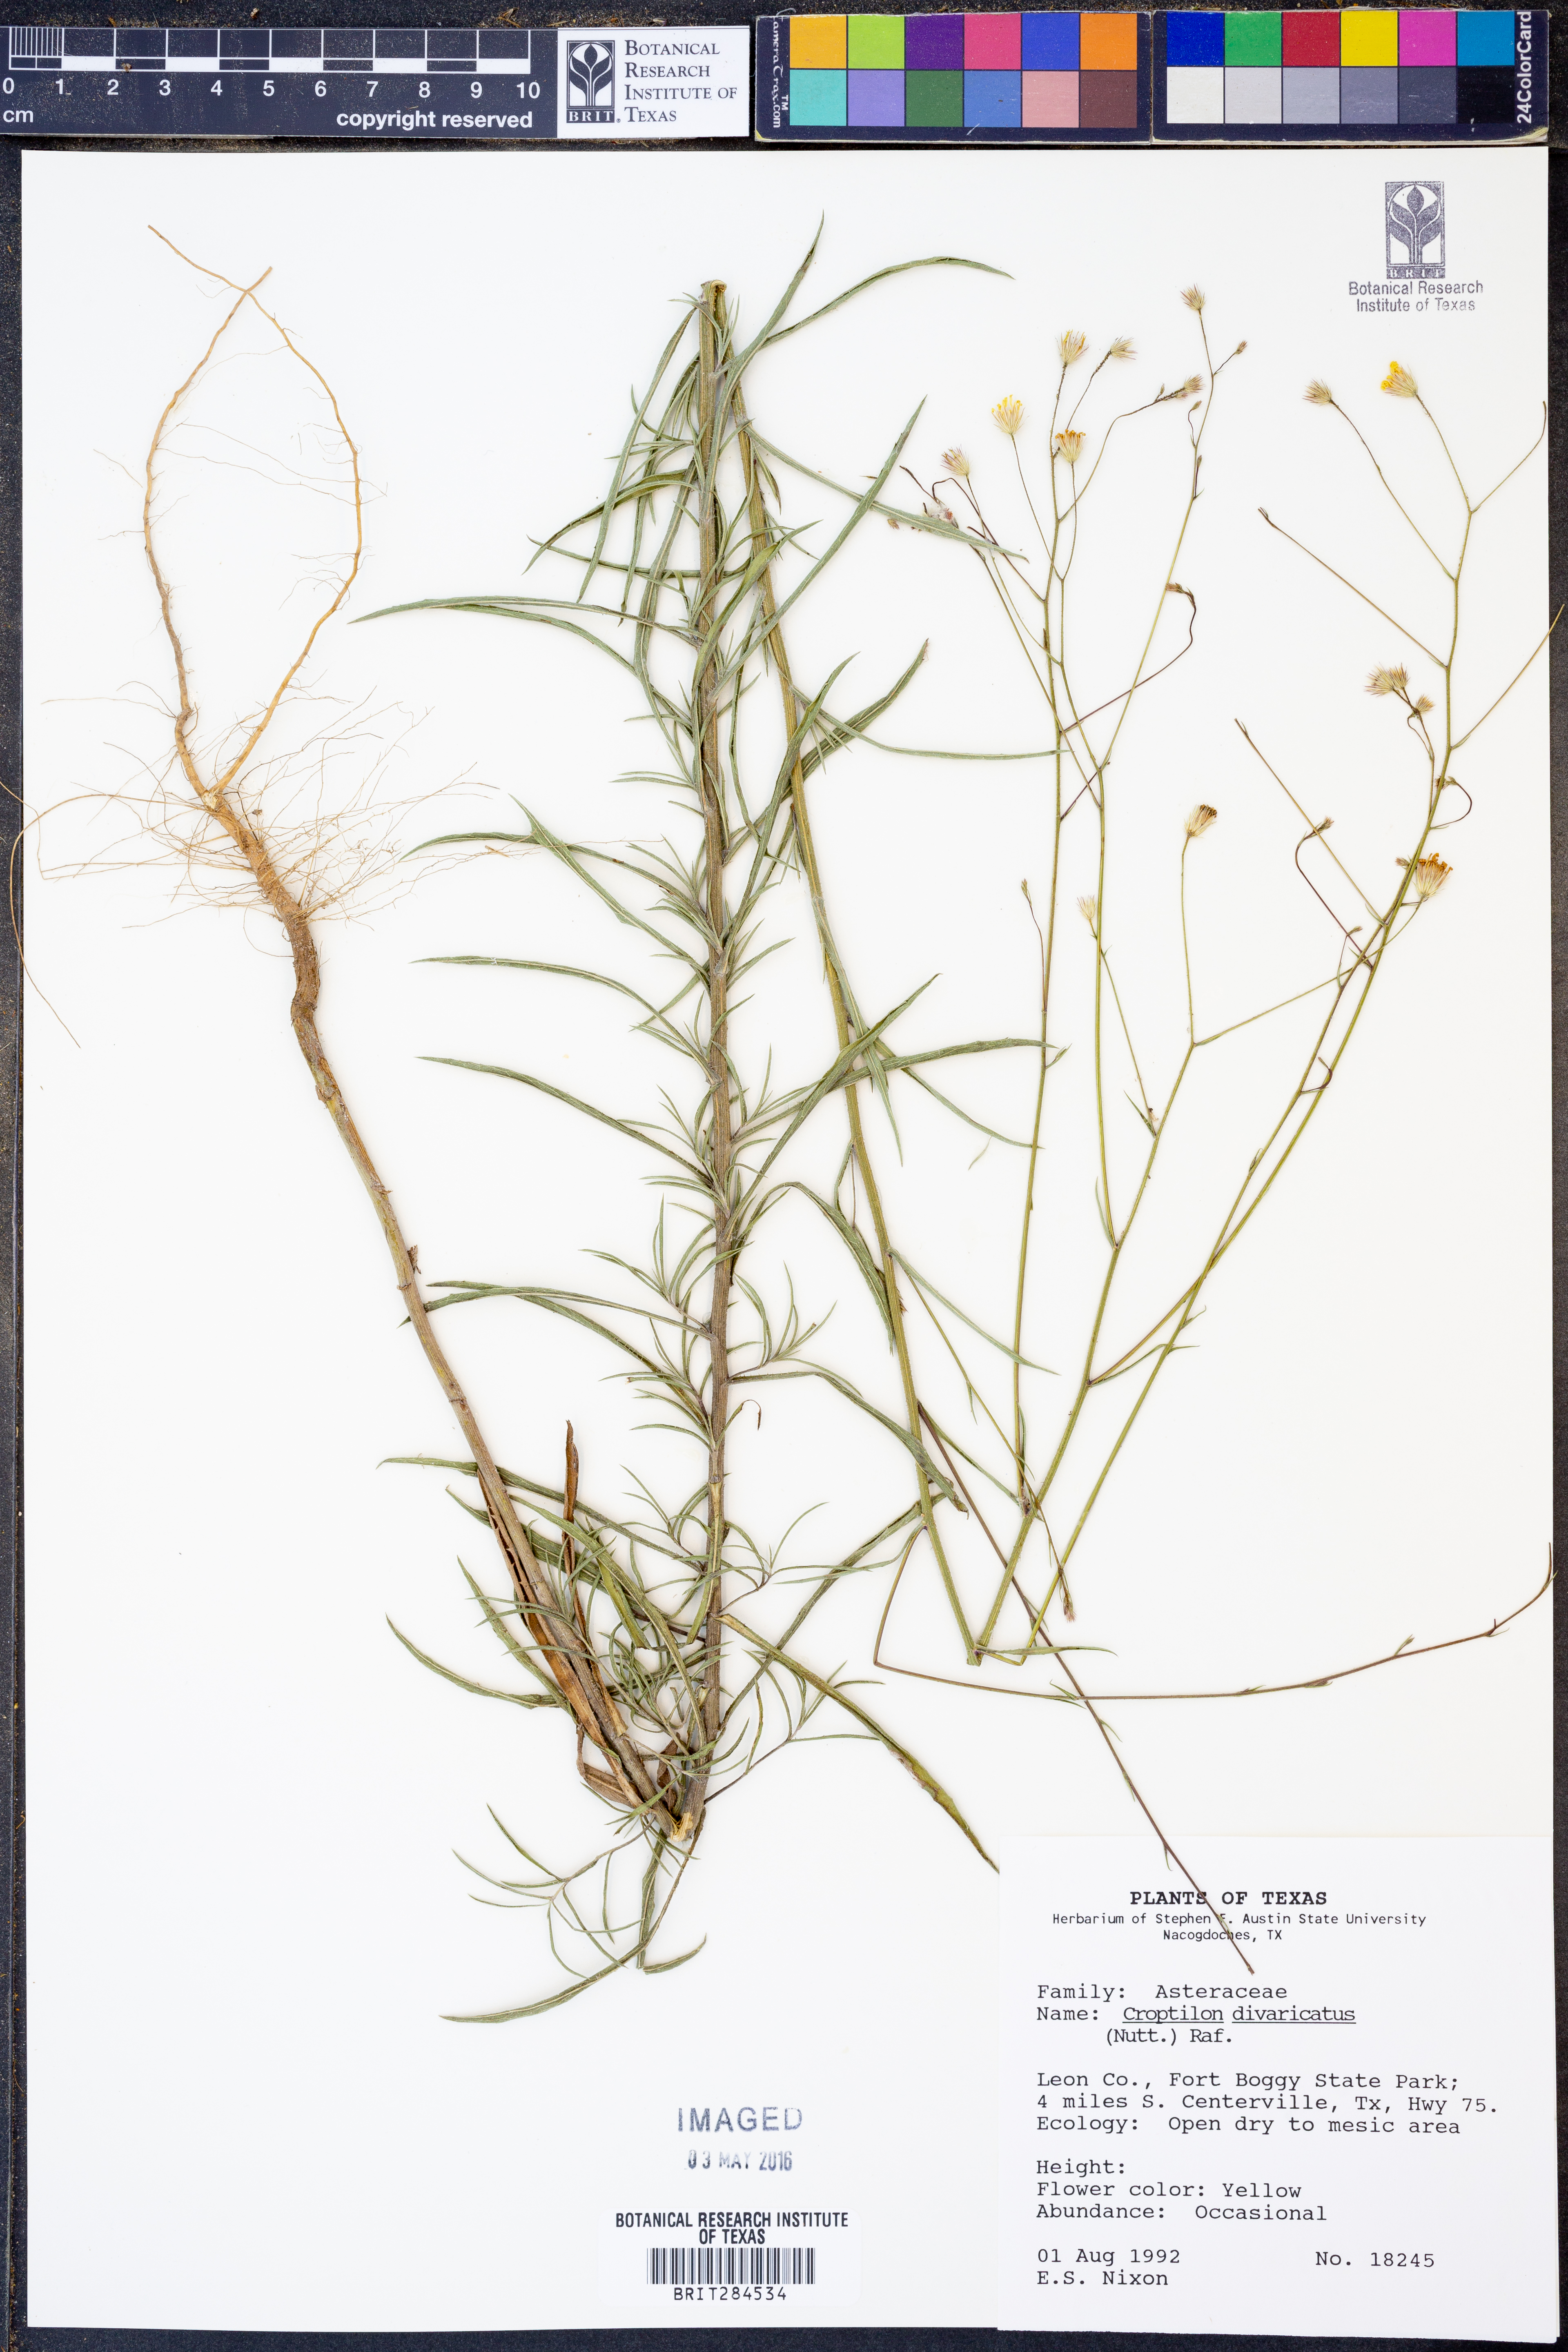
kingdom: Plantae
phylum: Tracheophyta
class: Magnoliopsida
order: Asterales
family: Asteraceae
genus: Croptilon
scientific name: Croptilon divaricatum
